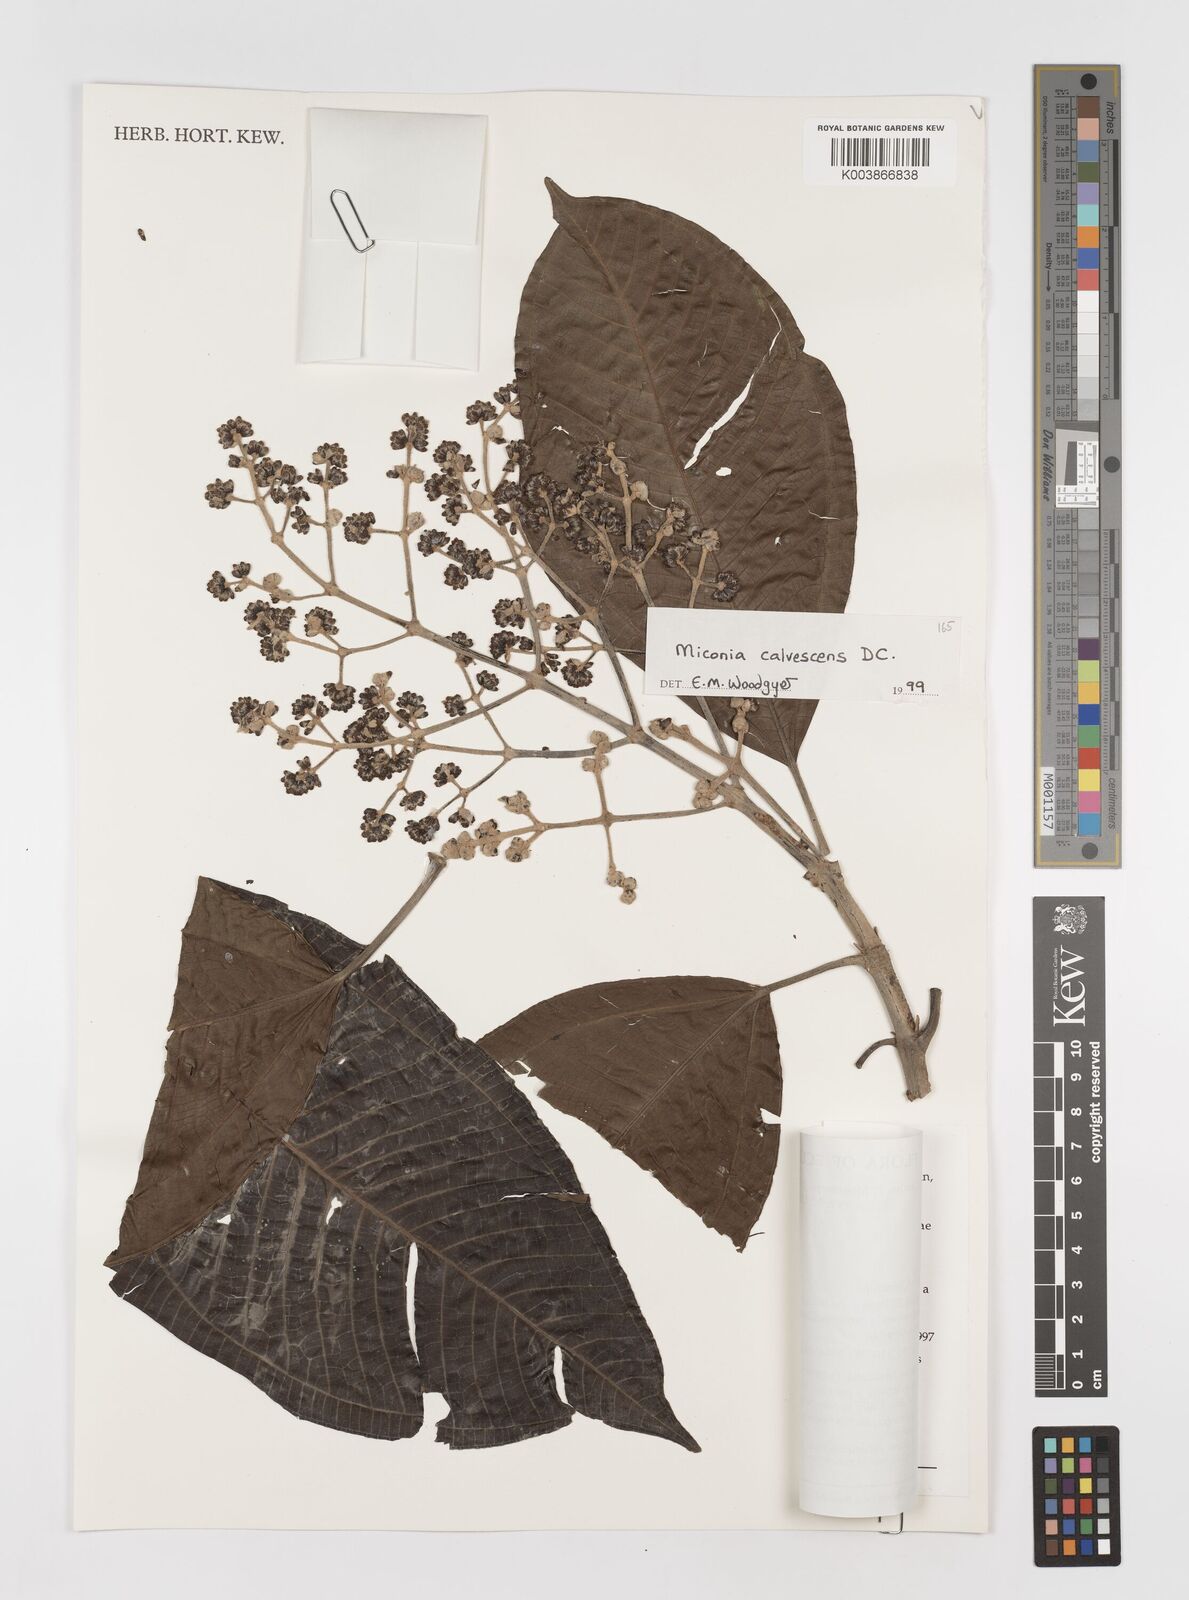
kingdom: Plantae
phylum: Tracheophyta
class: Magnoliopsida
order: Myrtales
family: Melastomataceae
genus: Miconia
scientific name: Miconia calvescens
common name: Purple plague
